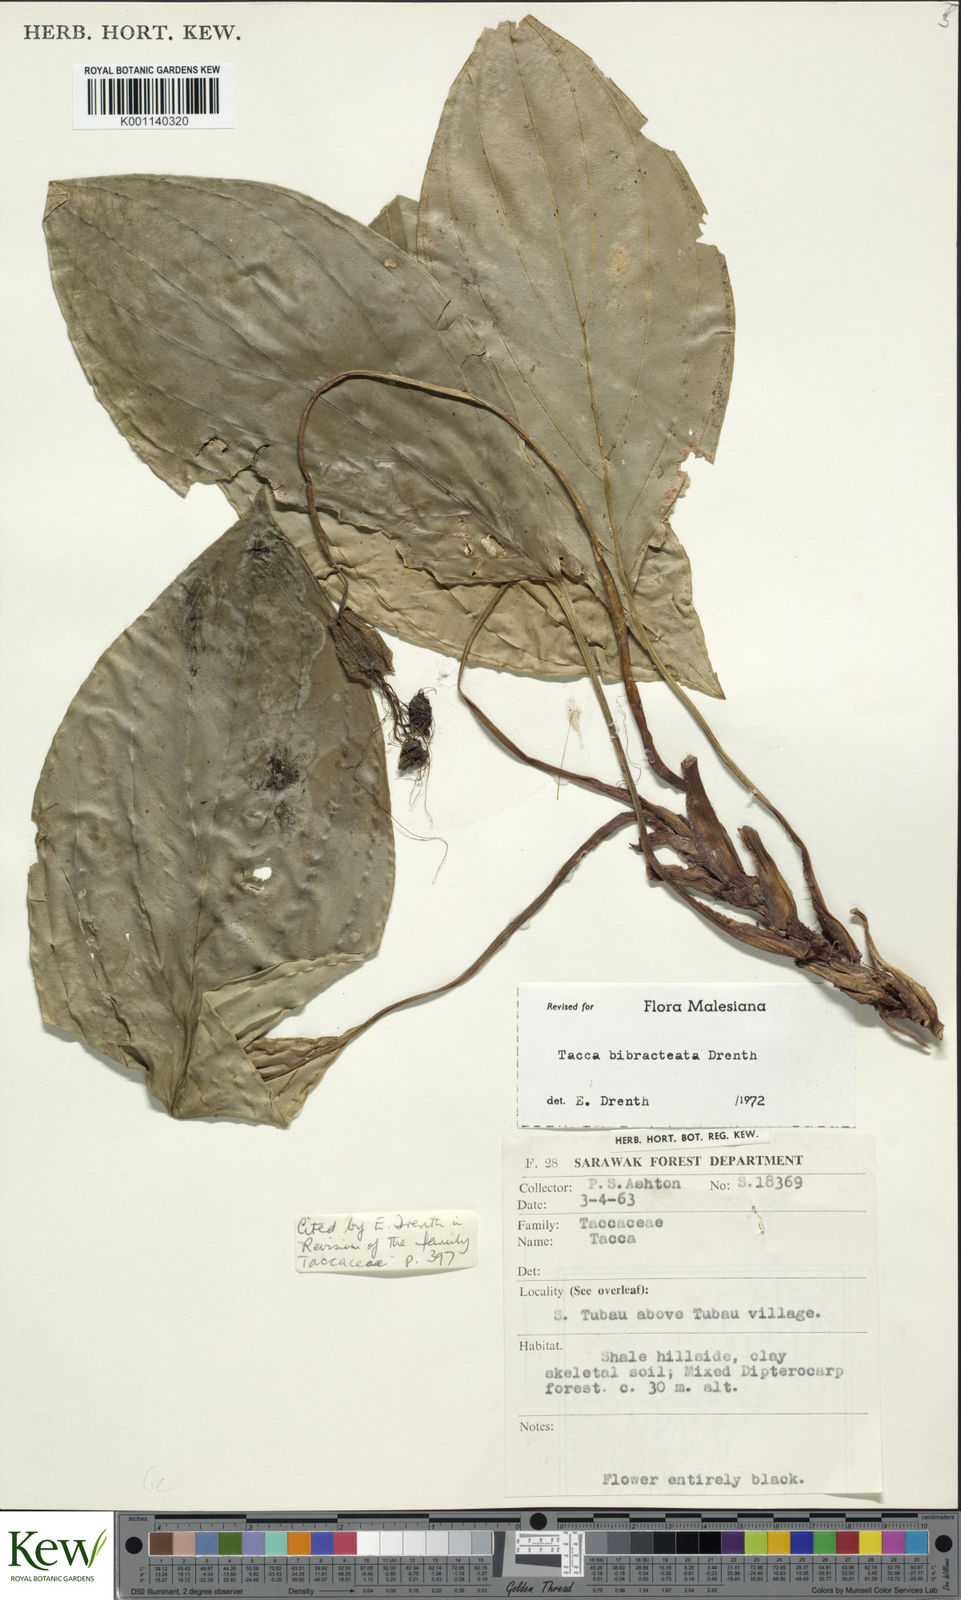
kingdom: Plantae
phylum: Tracheophyta
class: Liliopsida
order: Dioscoreales
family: Dioscoreaceae
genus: Tacca
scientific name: Tacca bibracteata
